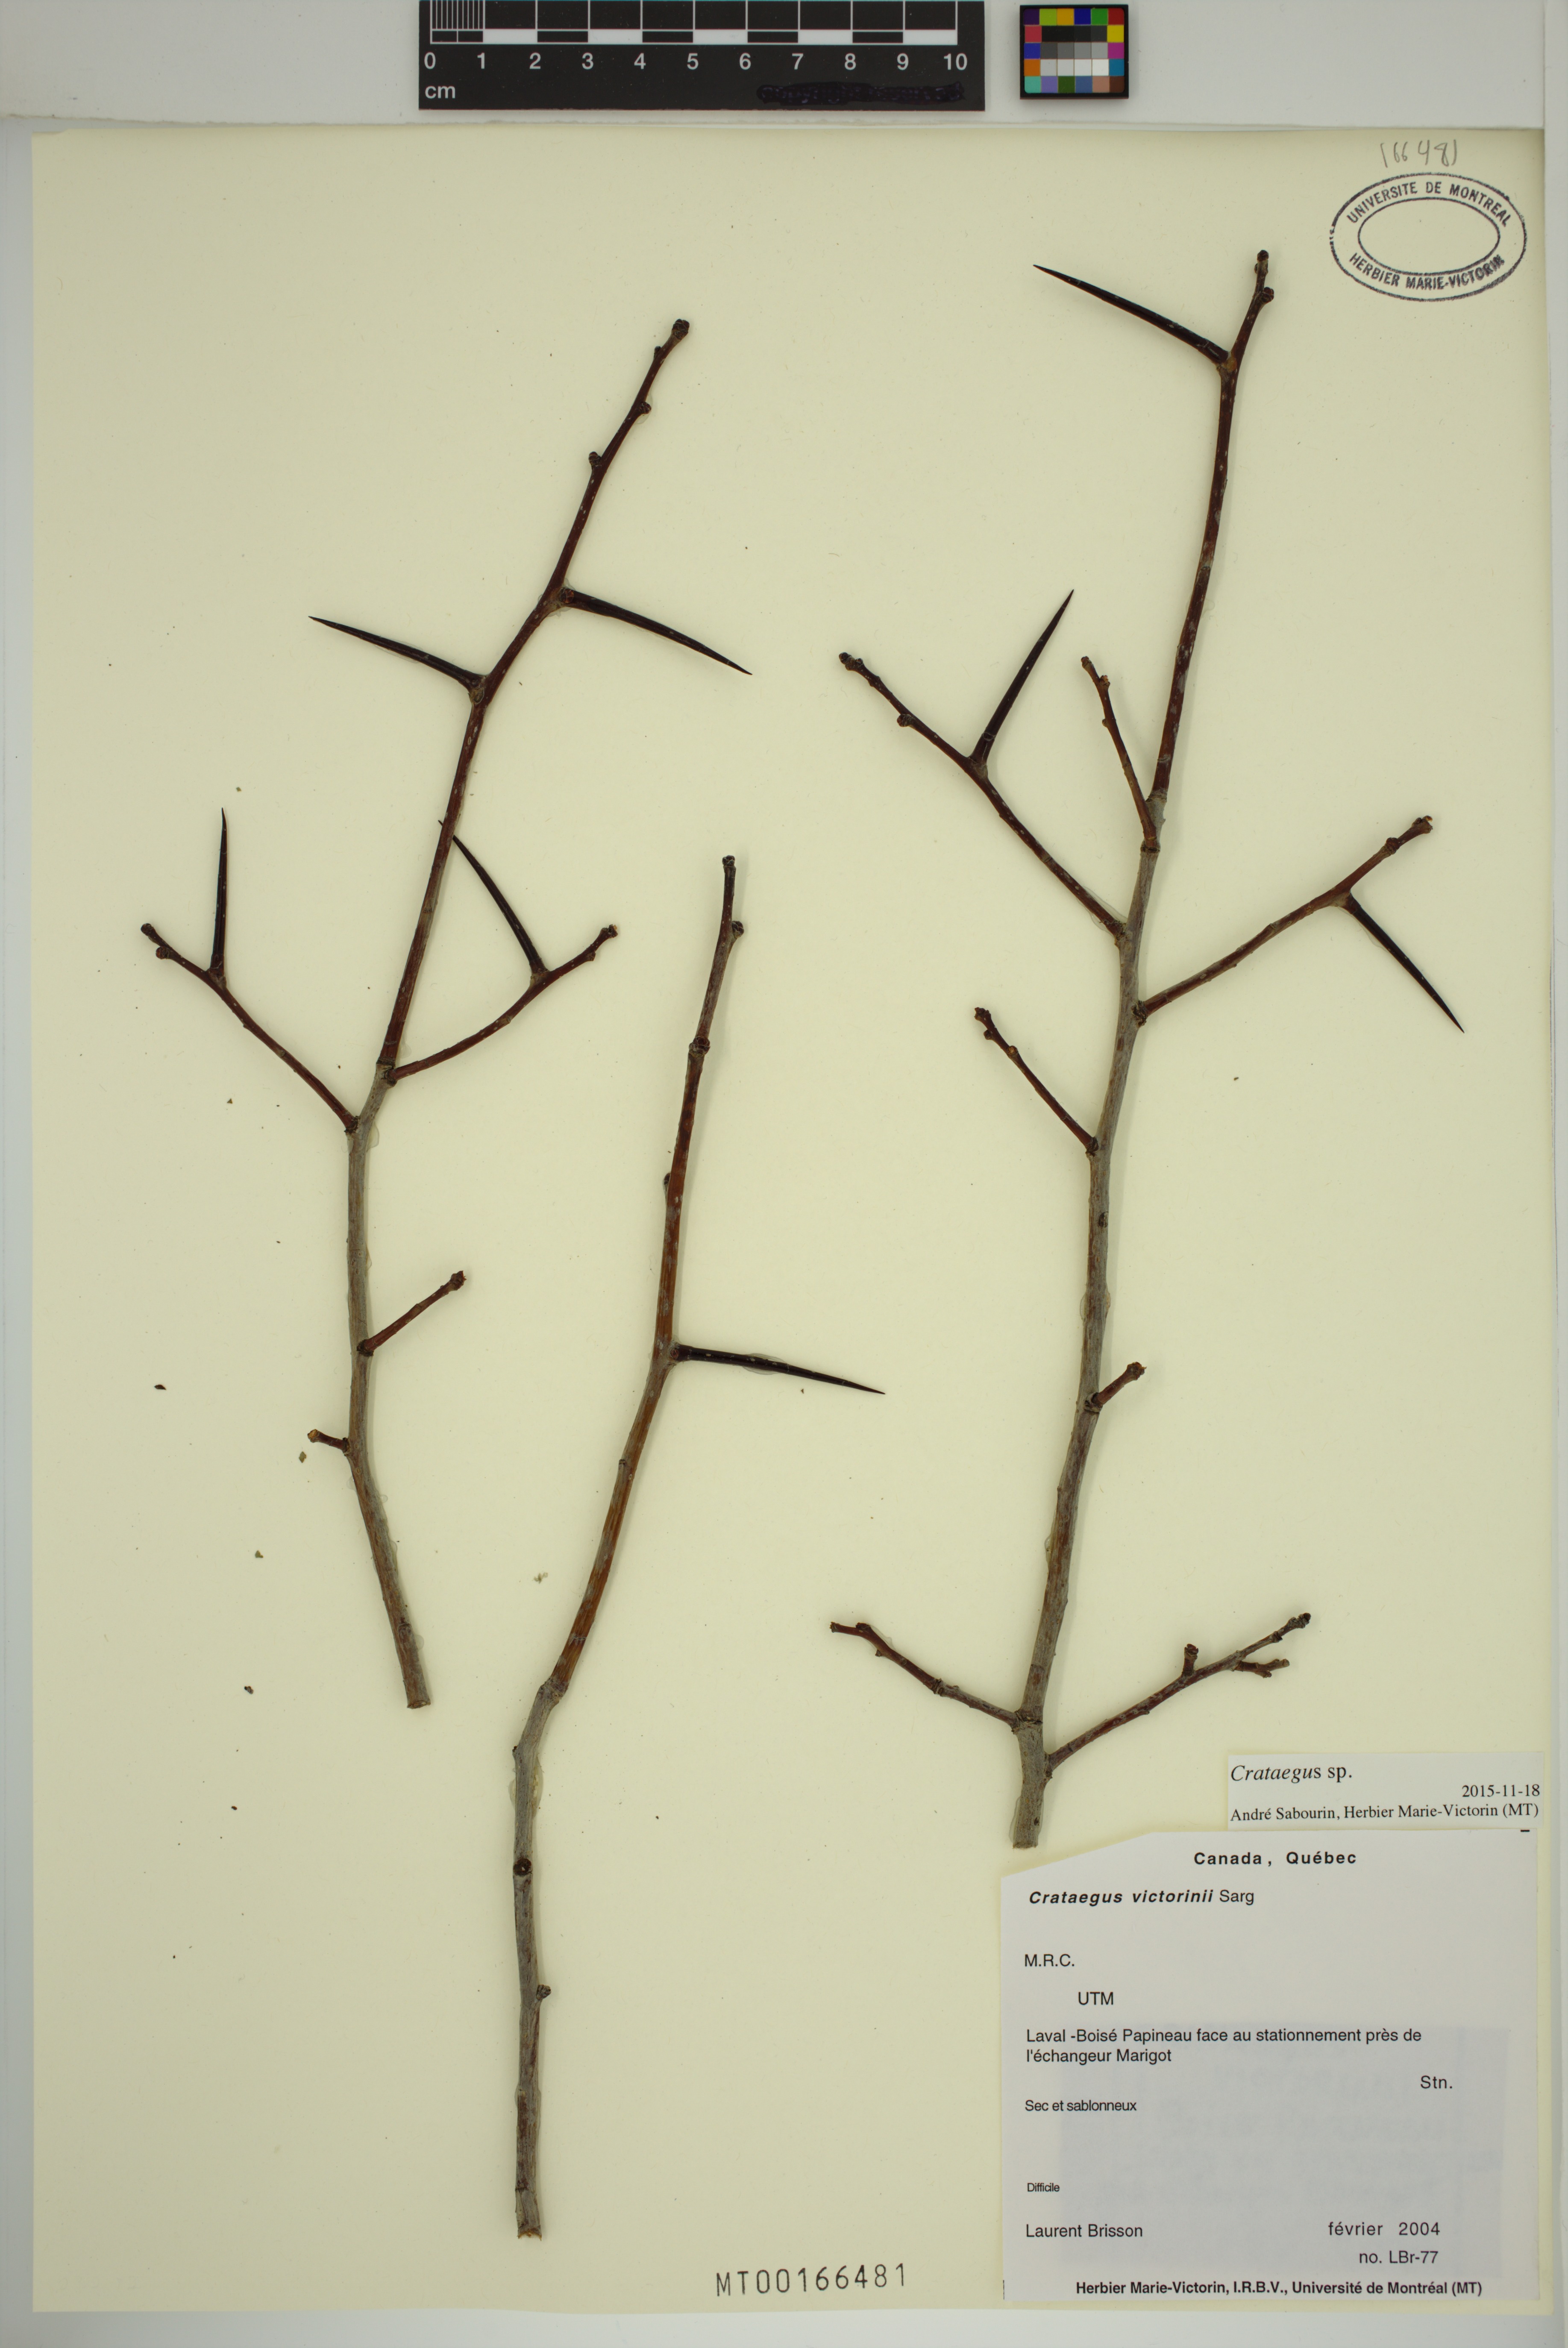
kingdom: Plantae
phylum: Tracheophyta
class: Magnoliopsida
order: Rosales
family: Rosaceae
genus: Crataegus
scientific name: Crataegus
